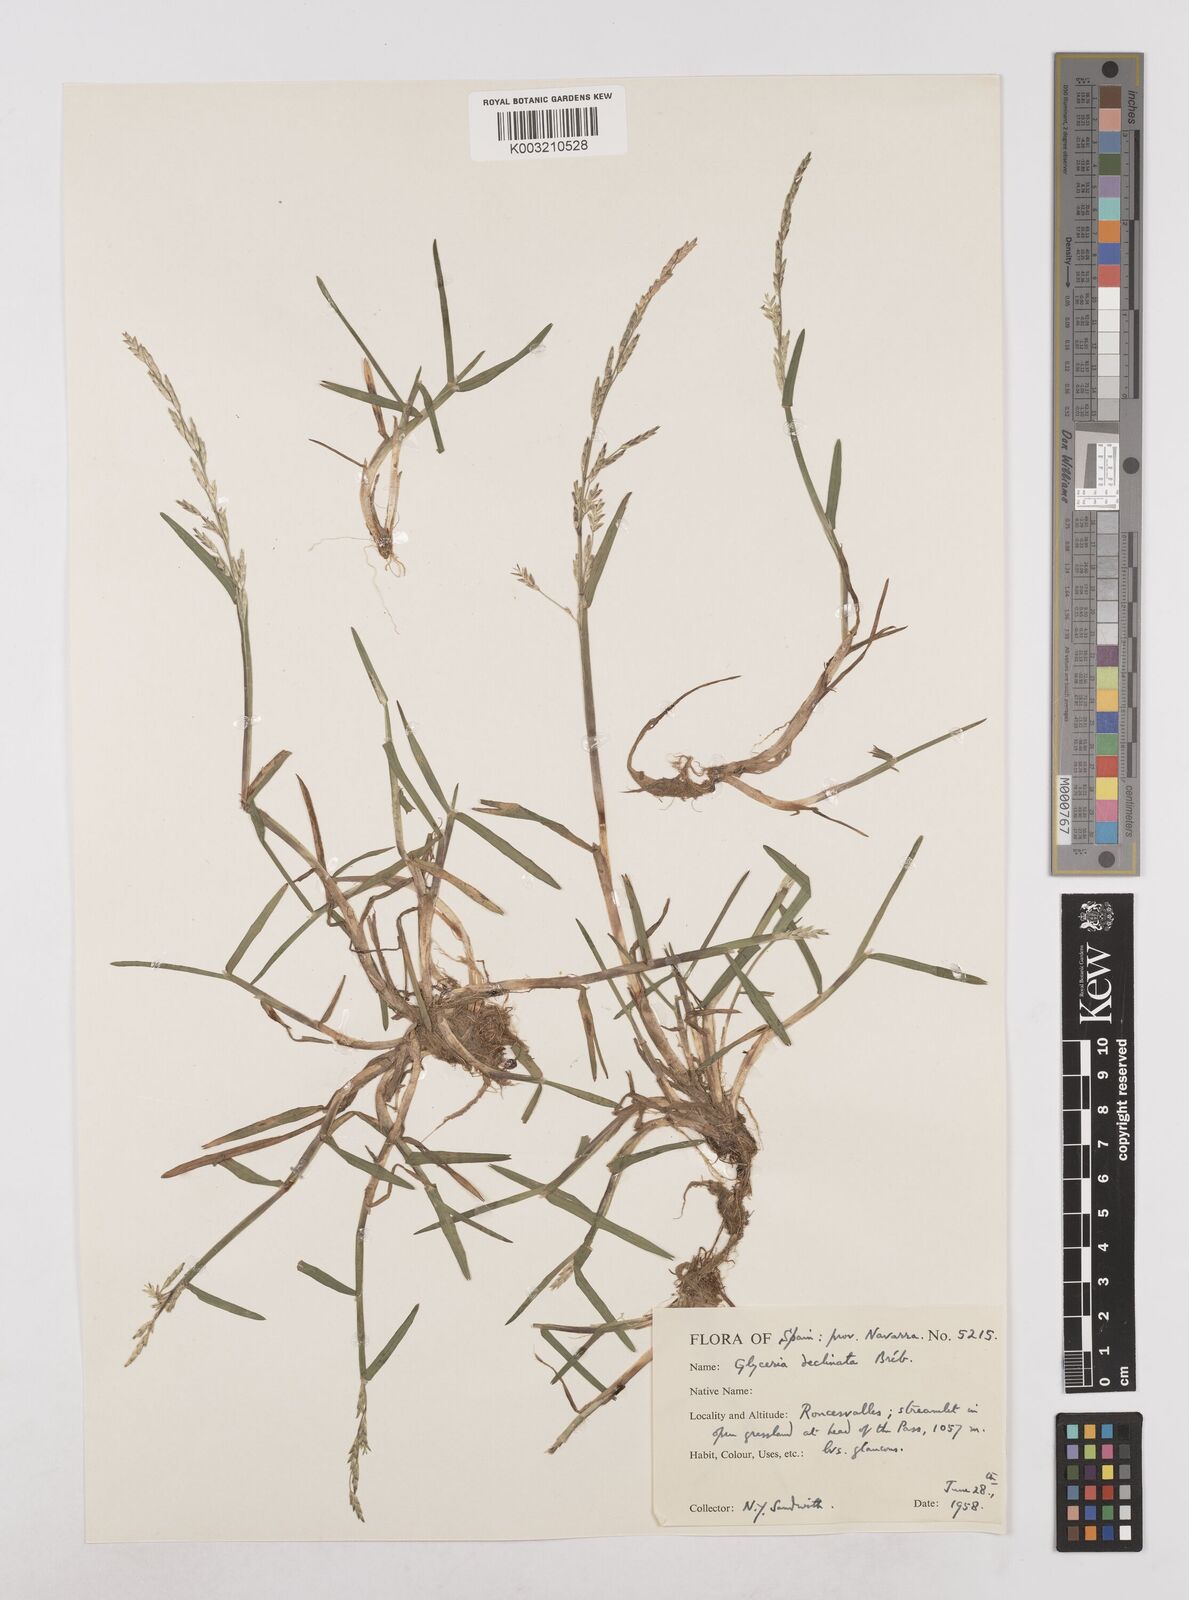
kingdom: Plantae
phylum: Tracheophyta
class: Liliopsida
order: Poales
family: Poaceae
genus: Glyceria
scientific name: Glyceria declinata
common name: Small sweet-grass
